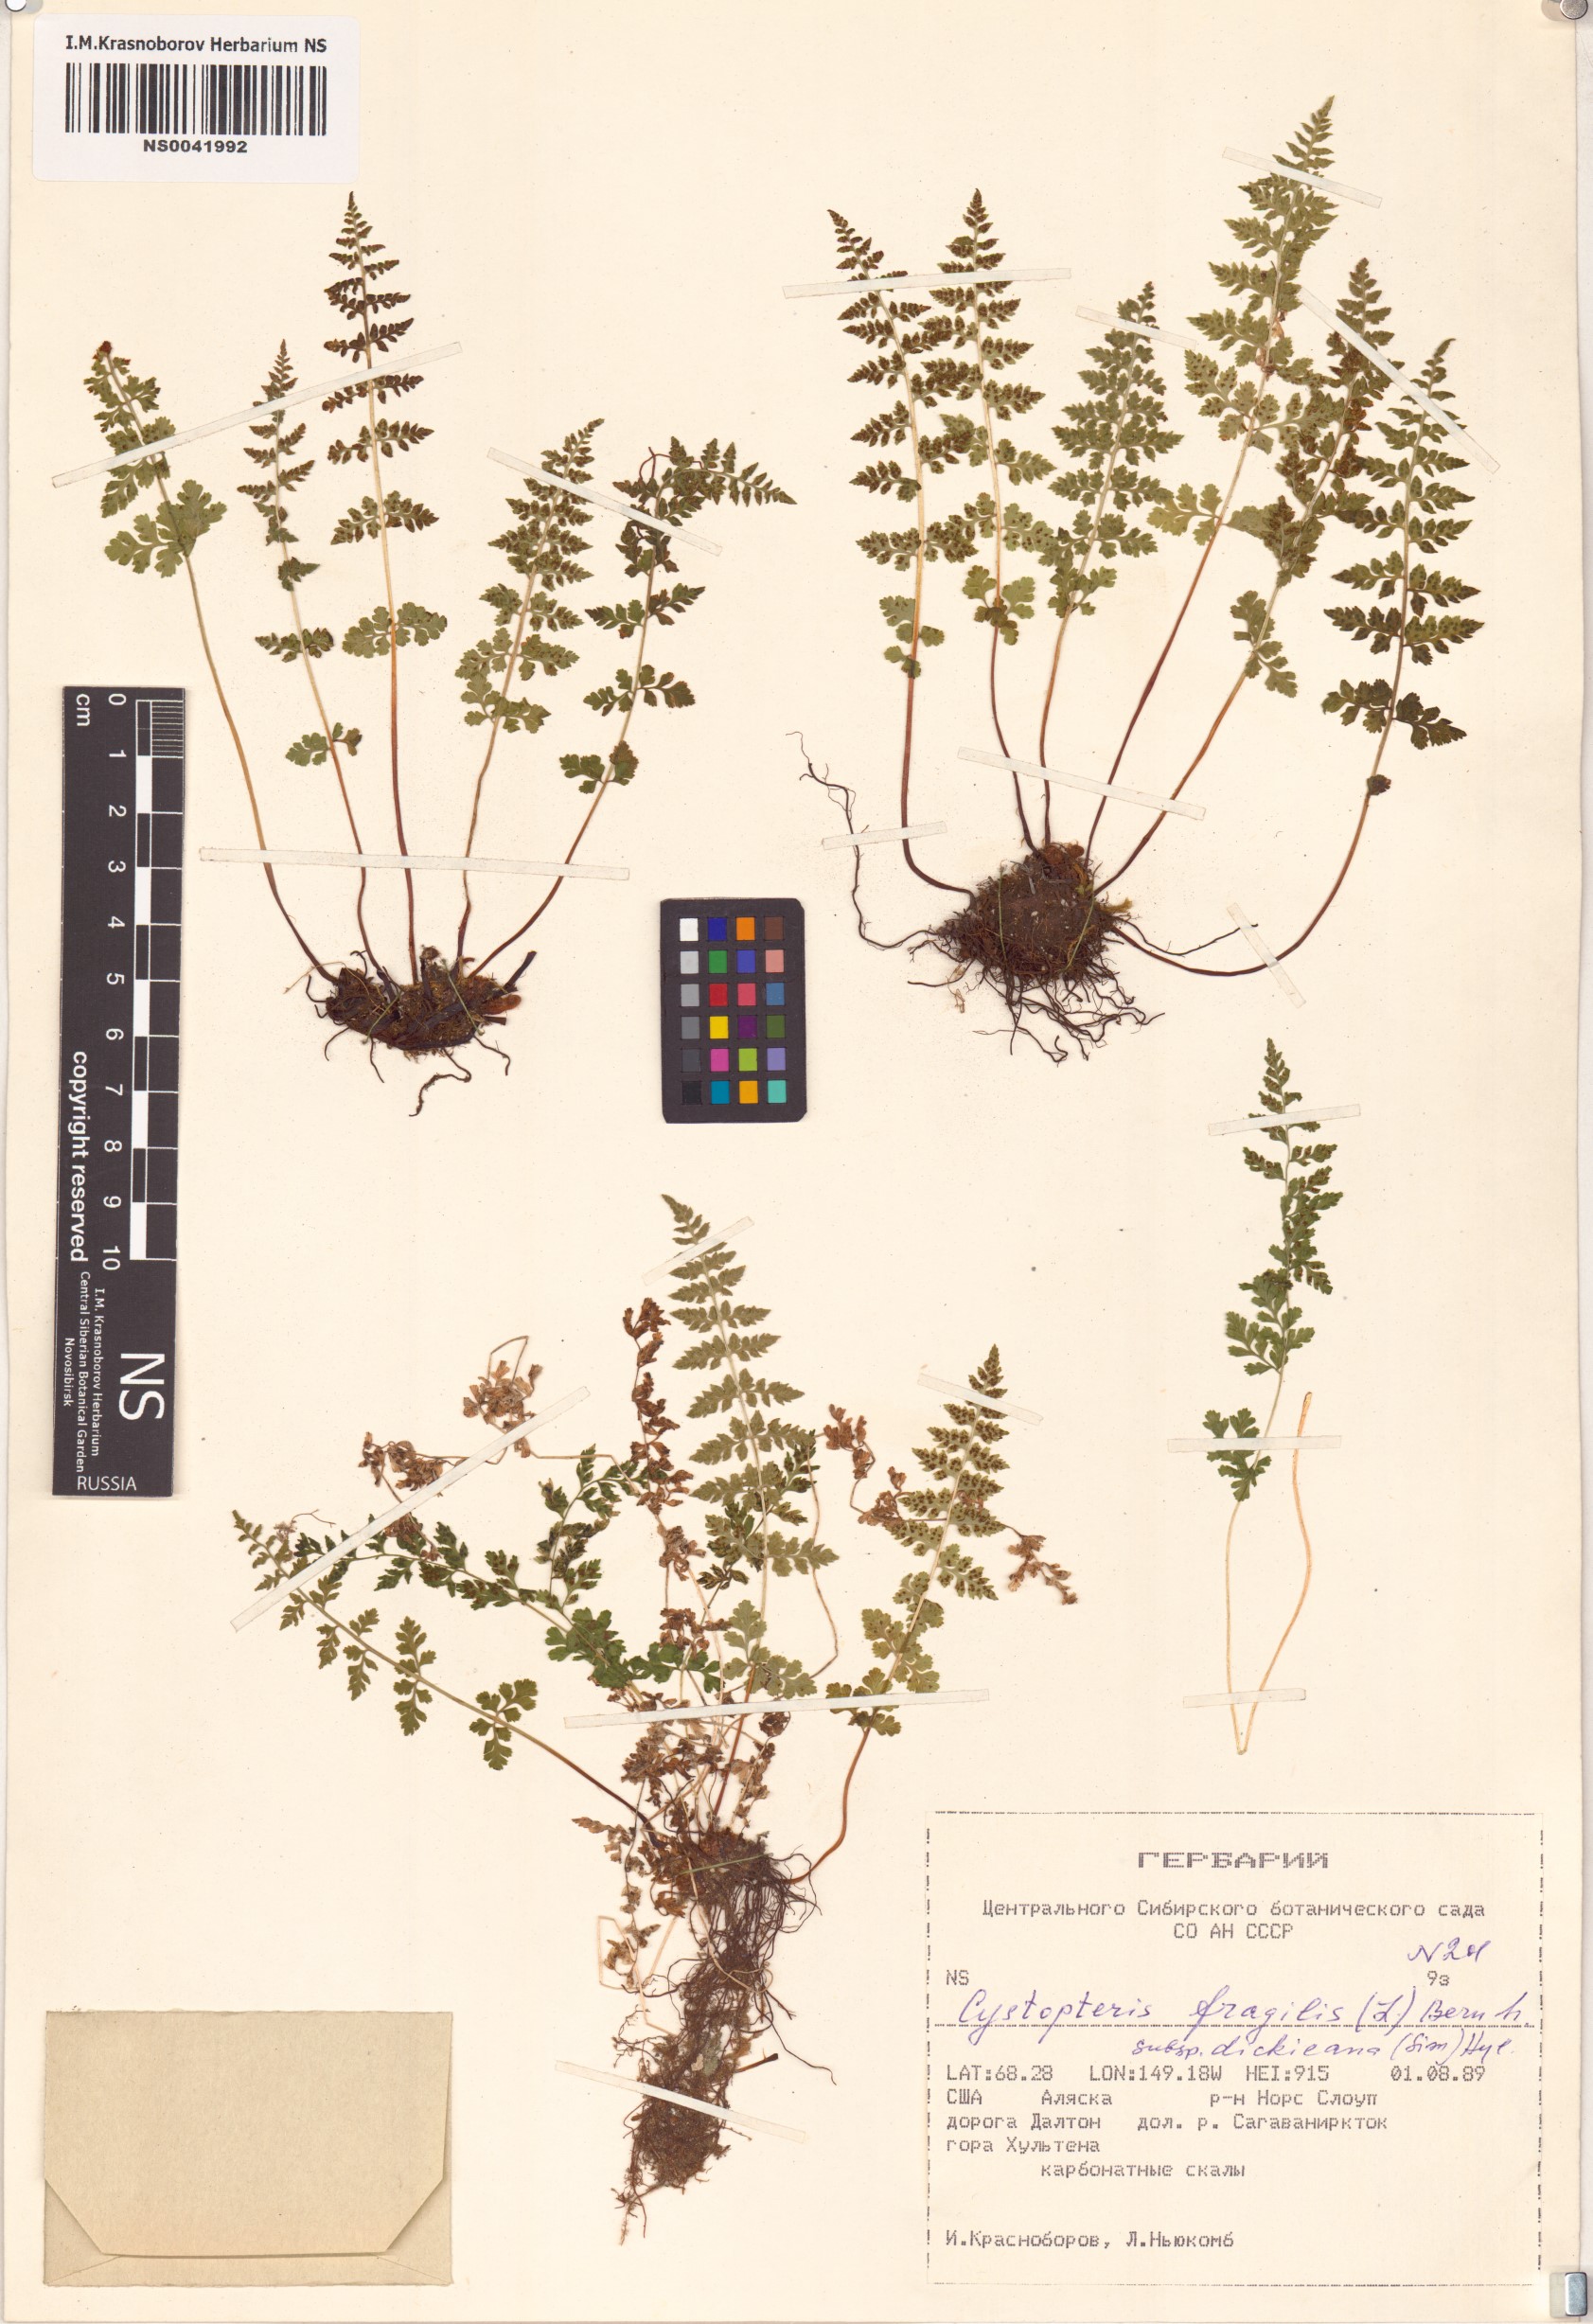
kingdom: Plantae
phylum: Tracheophyta
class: Polypodiopsida
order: Polypodiales
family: Cystopteridaceae
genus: Cystopteris
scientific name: Cystopteris dickieana
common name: Dickie's bladder-fern
